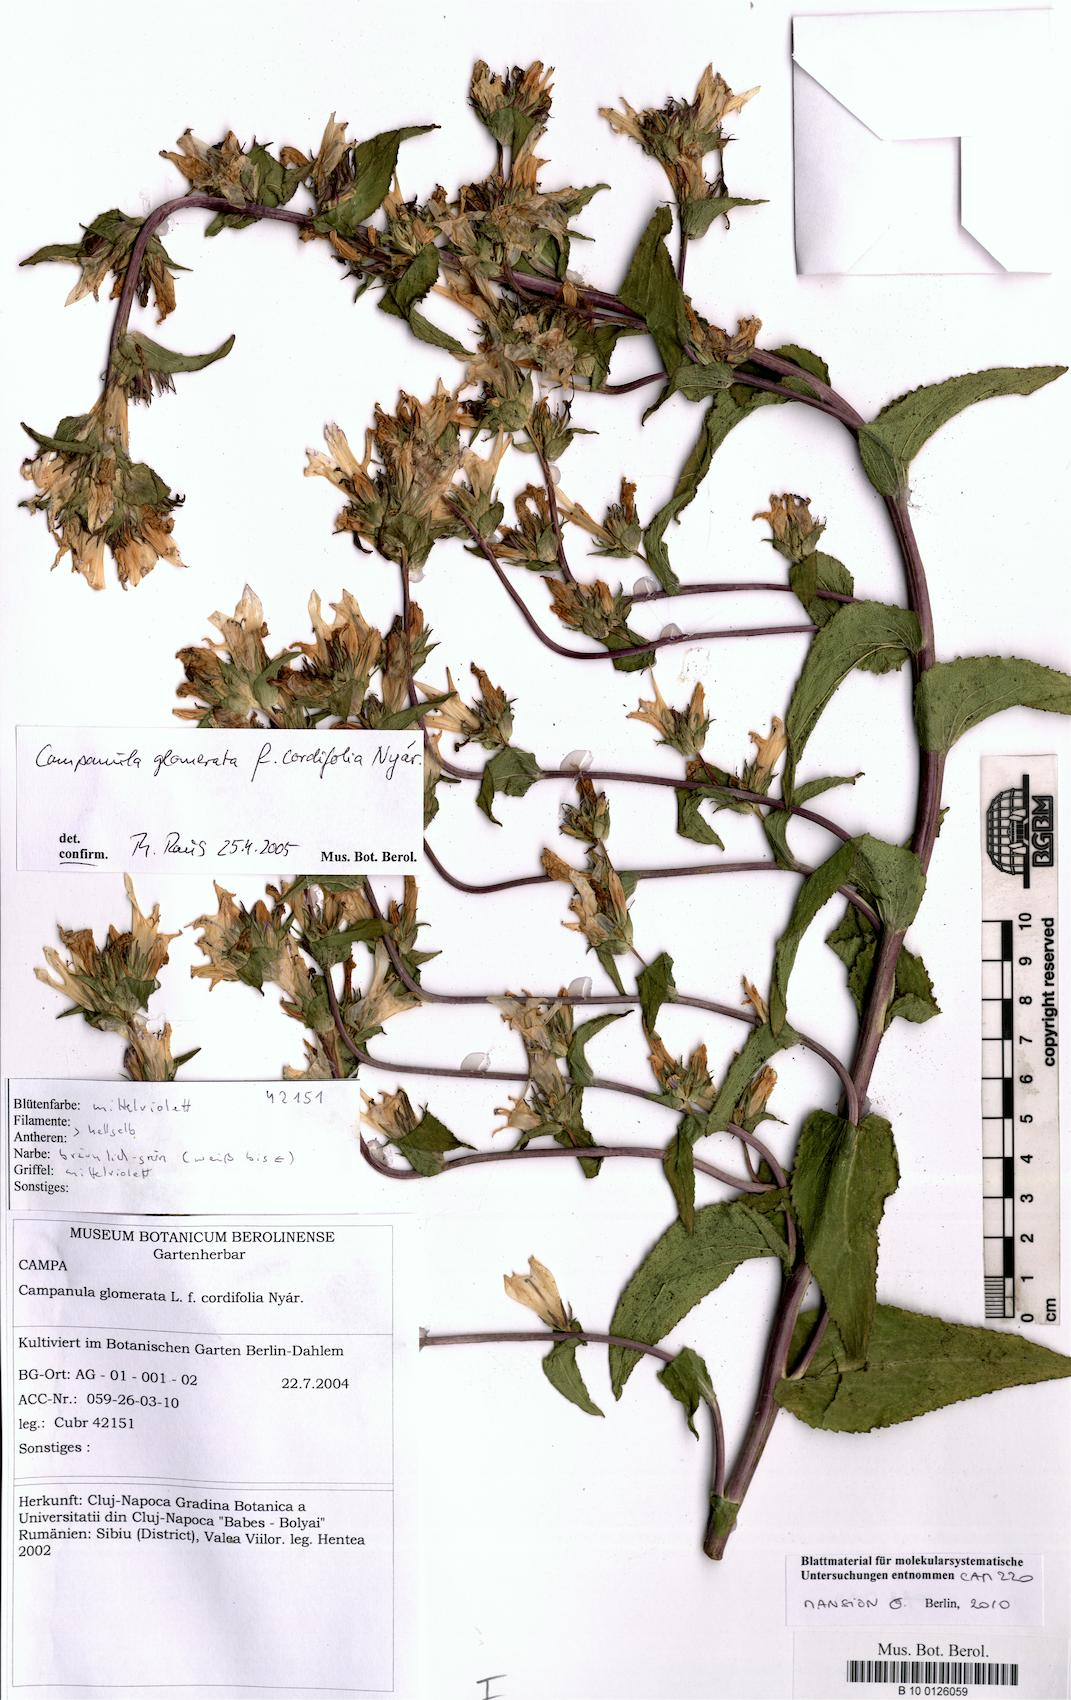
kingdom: Plantae
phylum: Tracheophyta
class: Magnoliopsida
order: Asterales
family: Campanulaceae
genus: Campanula
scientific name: Campanula glomerata
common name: Clustered bellflower
